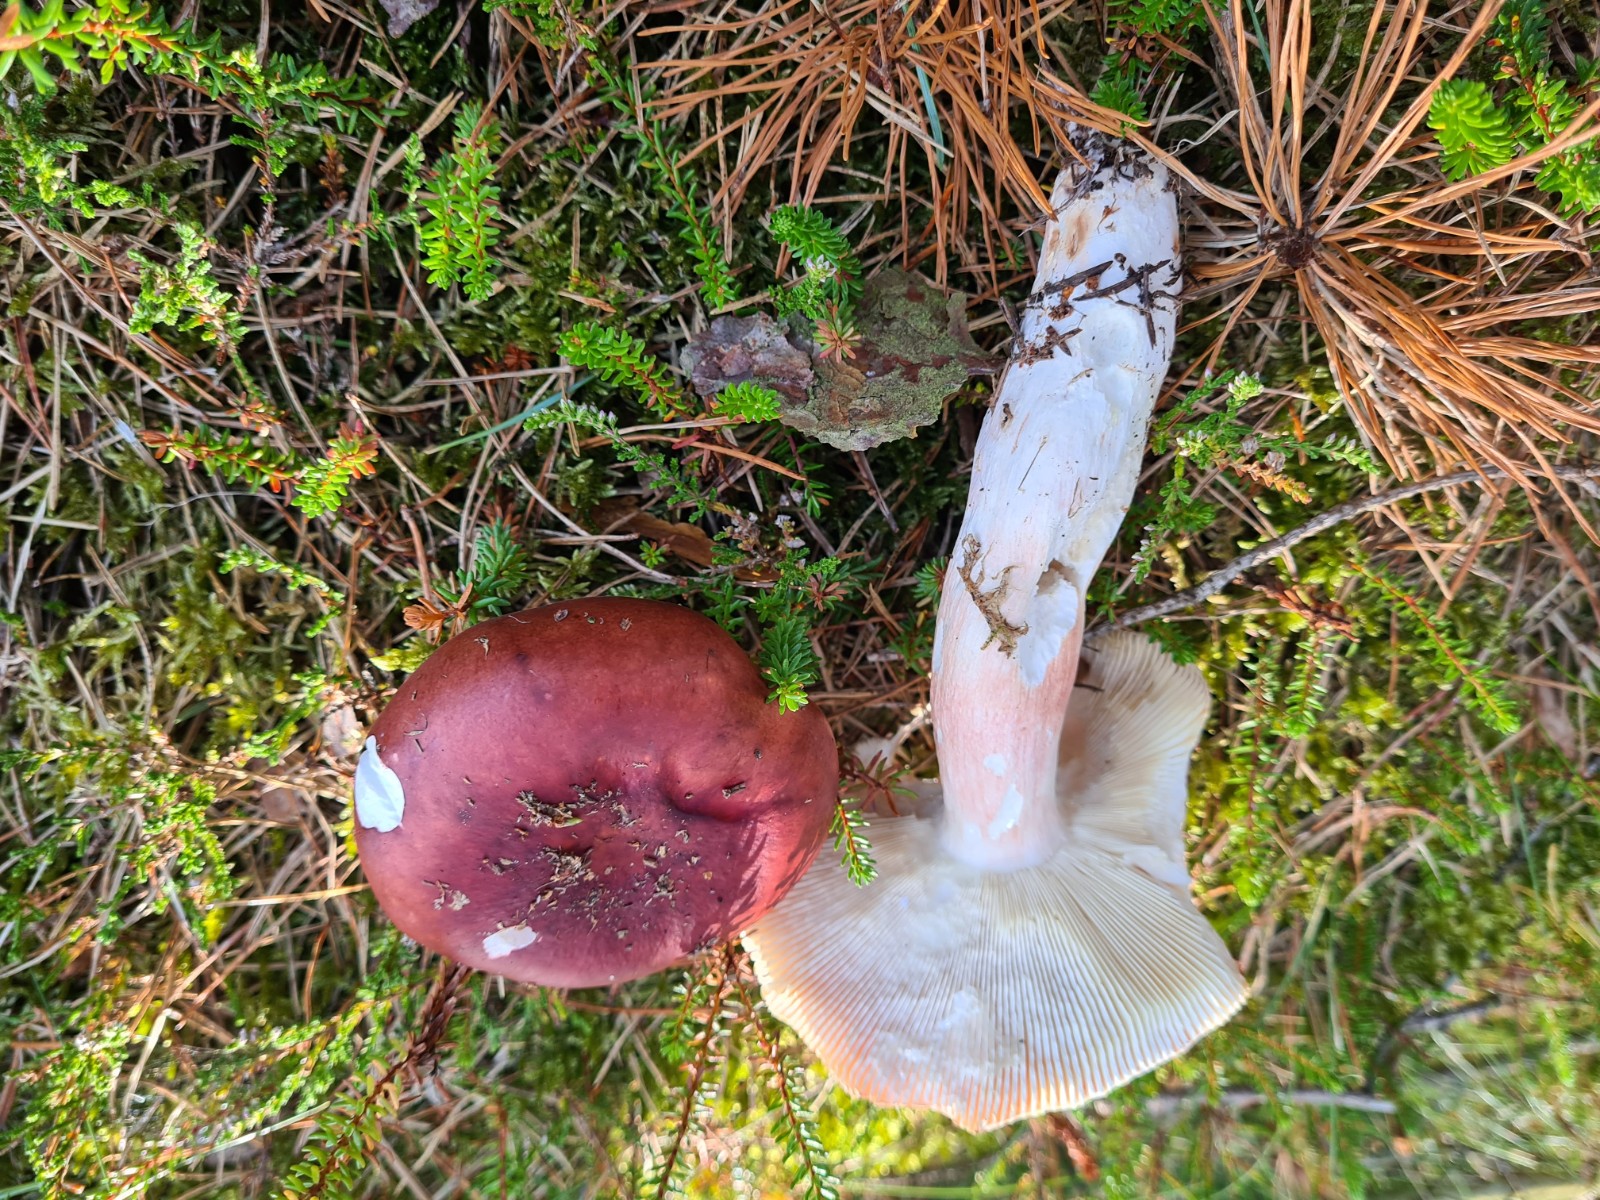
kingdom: Fungi
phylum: Basidiomycota
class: Agaricomycetes
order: Russulales
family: Russulaceae
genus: Russula
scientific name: Russula paludosa
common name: prægtig skørhat
